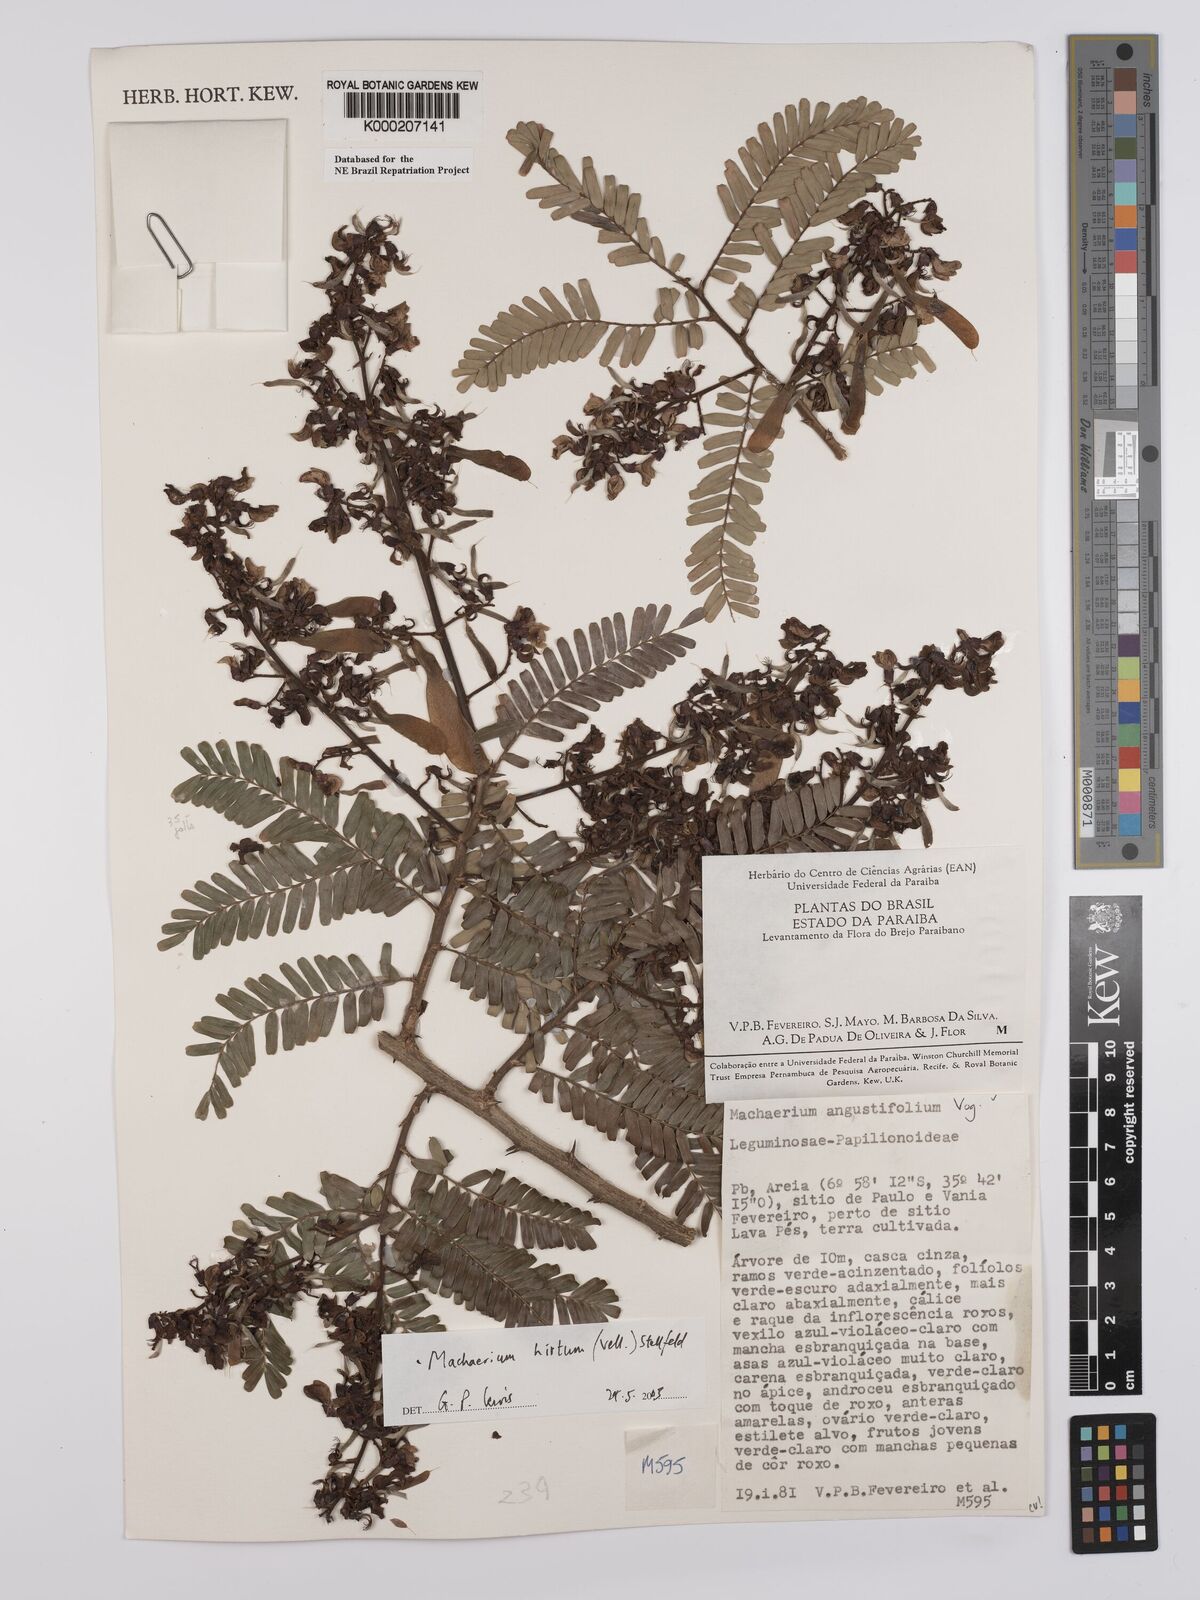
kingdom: Plantae
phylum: Tracheophyta
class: Magnoliopsida
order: Fabales
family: Fabaceae
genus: Machaerium
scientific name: Machaerium hirtum
